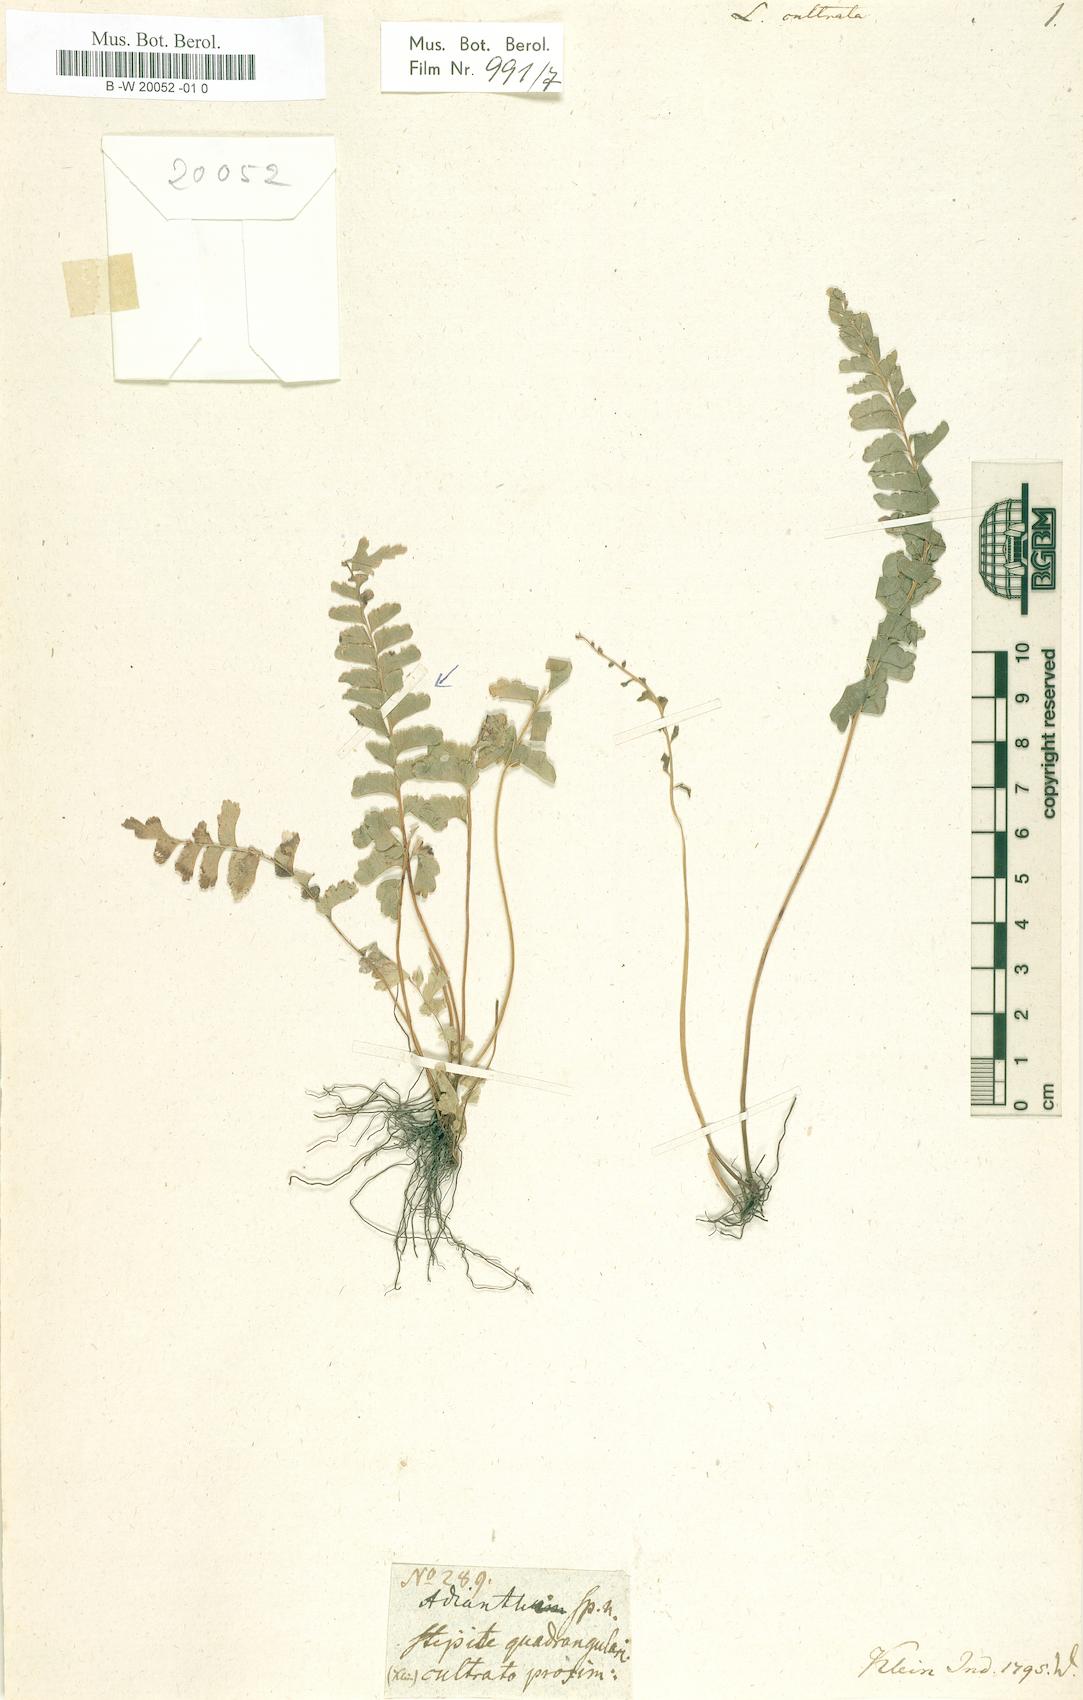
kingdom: Plantae
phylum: Tracheophyta
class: Polypodiopsida
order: Polypodiales
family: Lindsaeaceae
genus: Lindsaea
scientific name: Lindsaea cultrata
